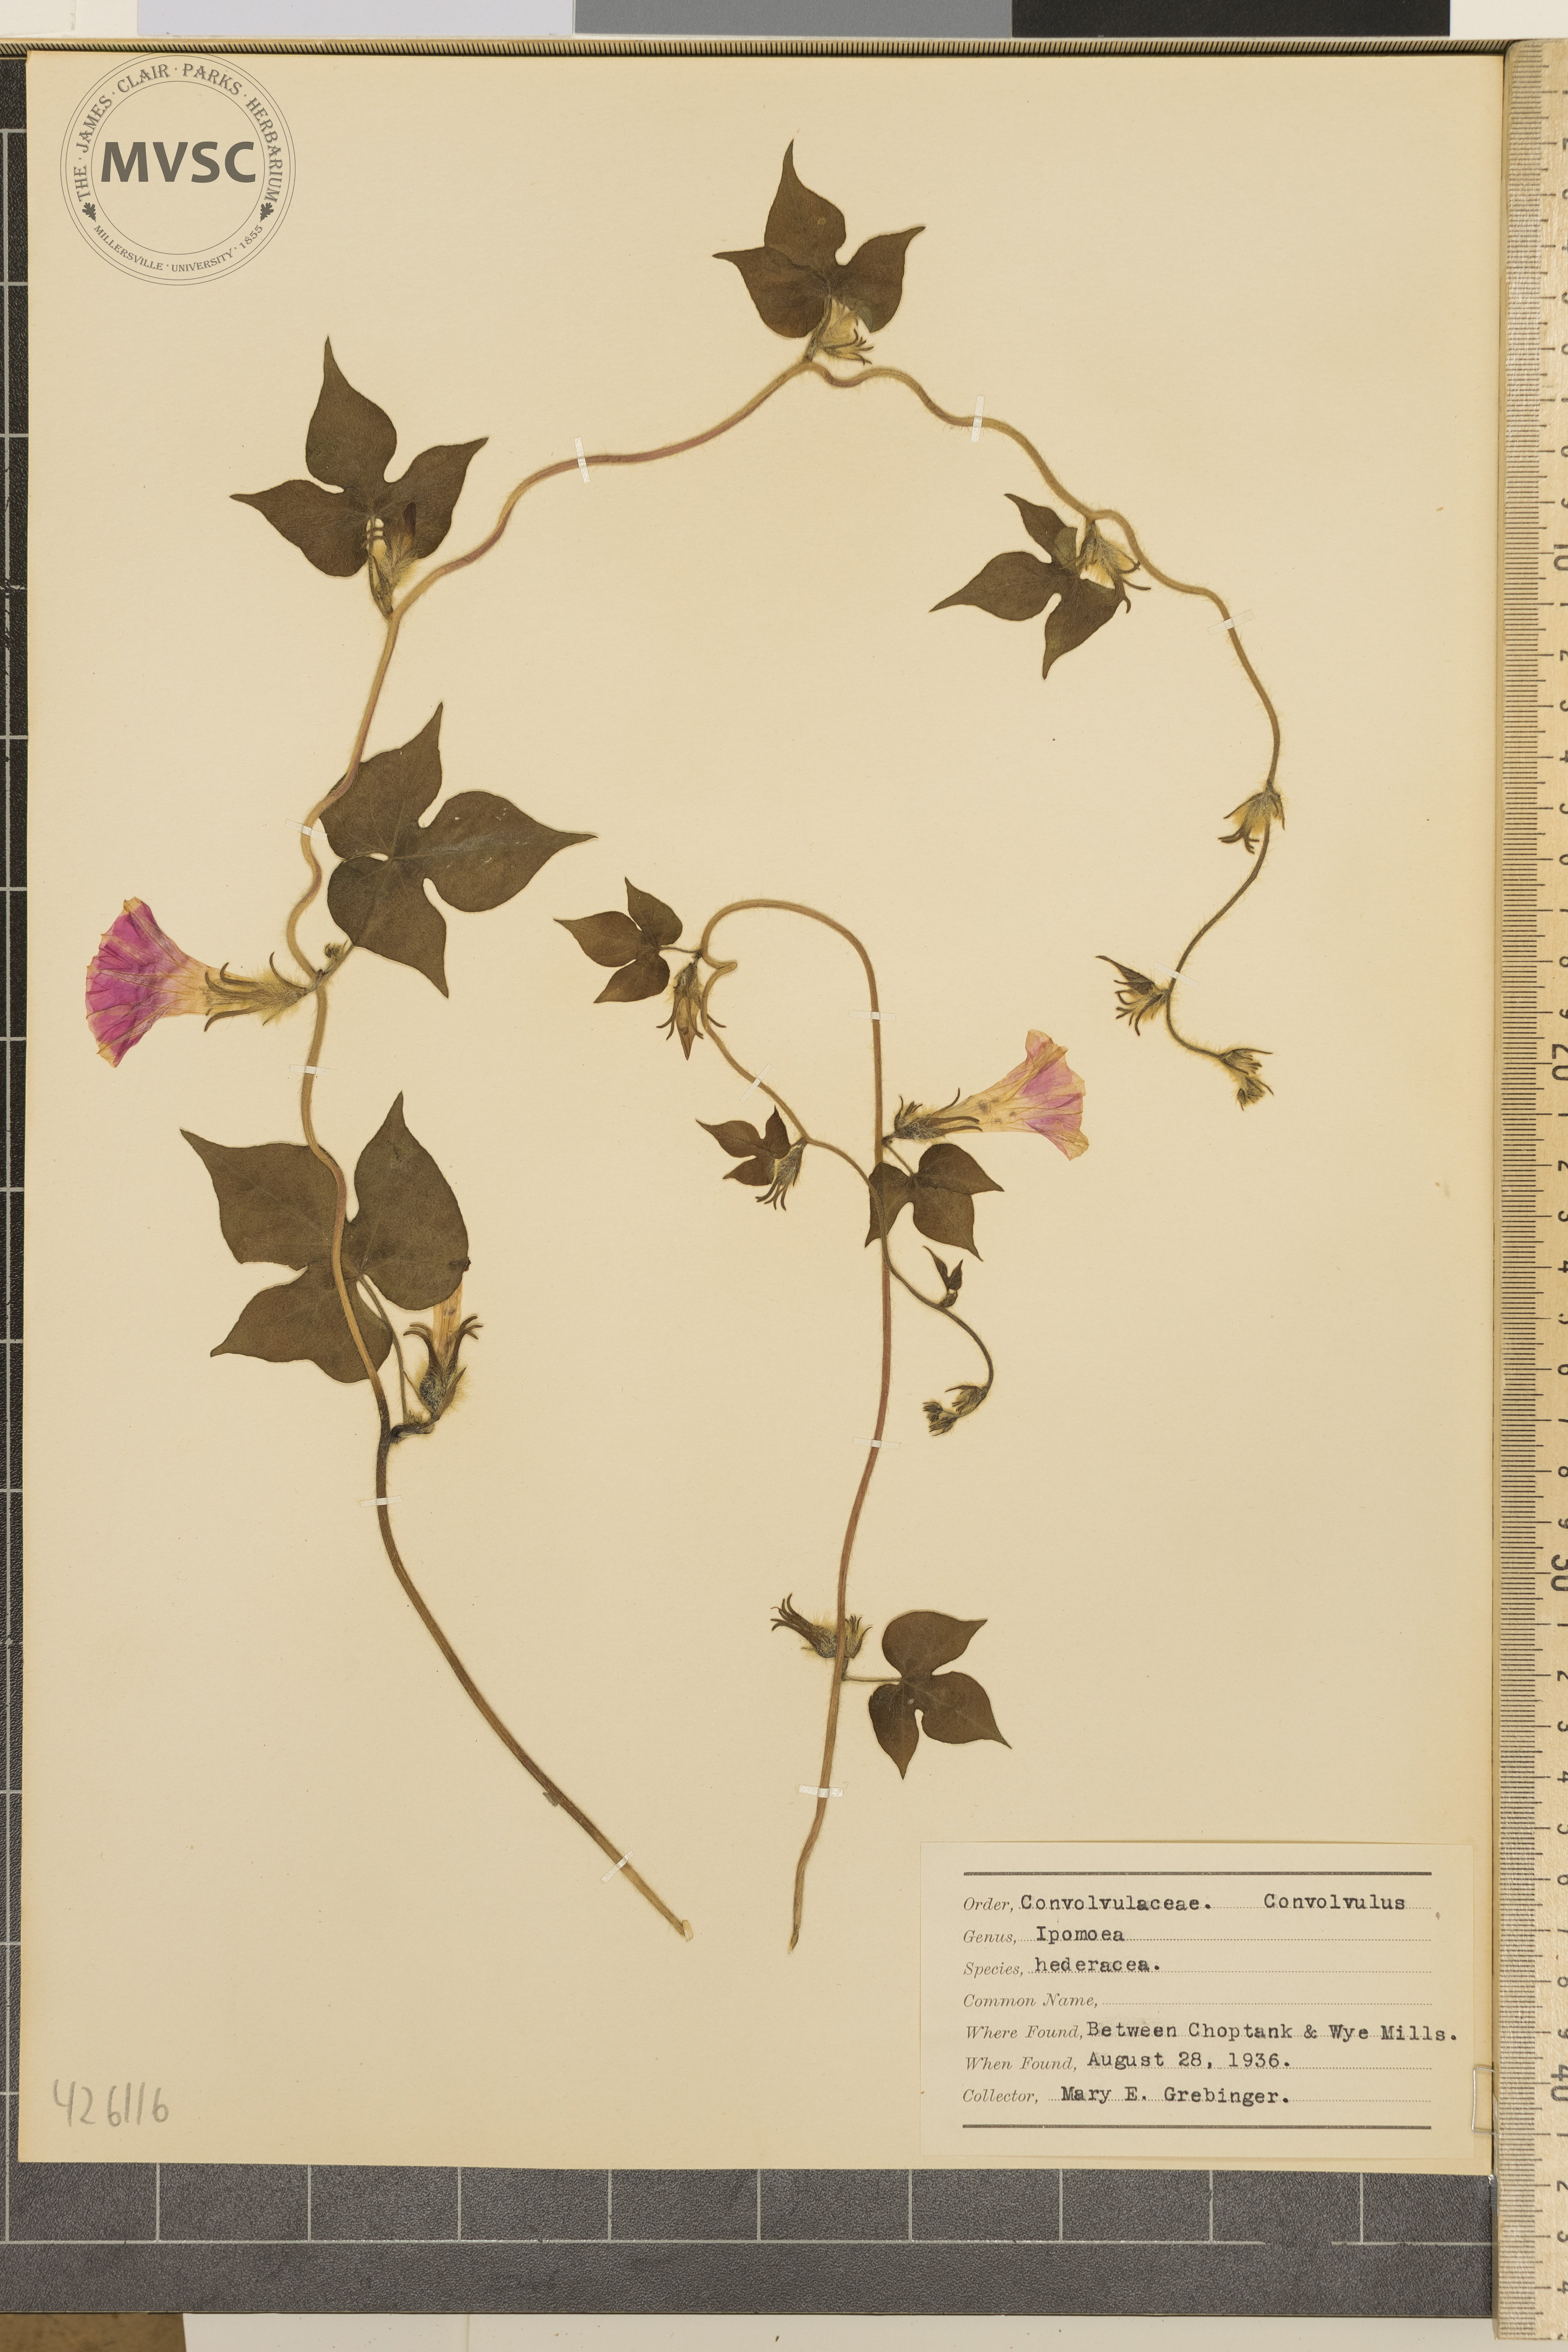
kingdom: Plantae
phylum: Tracheophyta
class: Magnoliopsida
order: Solanales
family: Convolvulaceae
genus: Ipomoea
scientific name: Ipomoea hederacea
